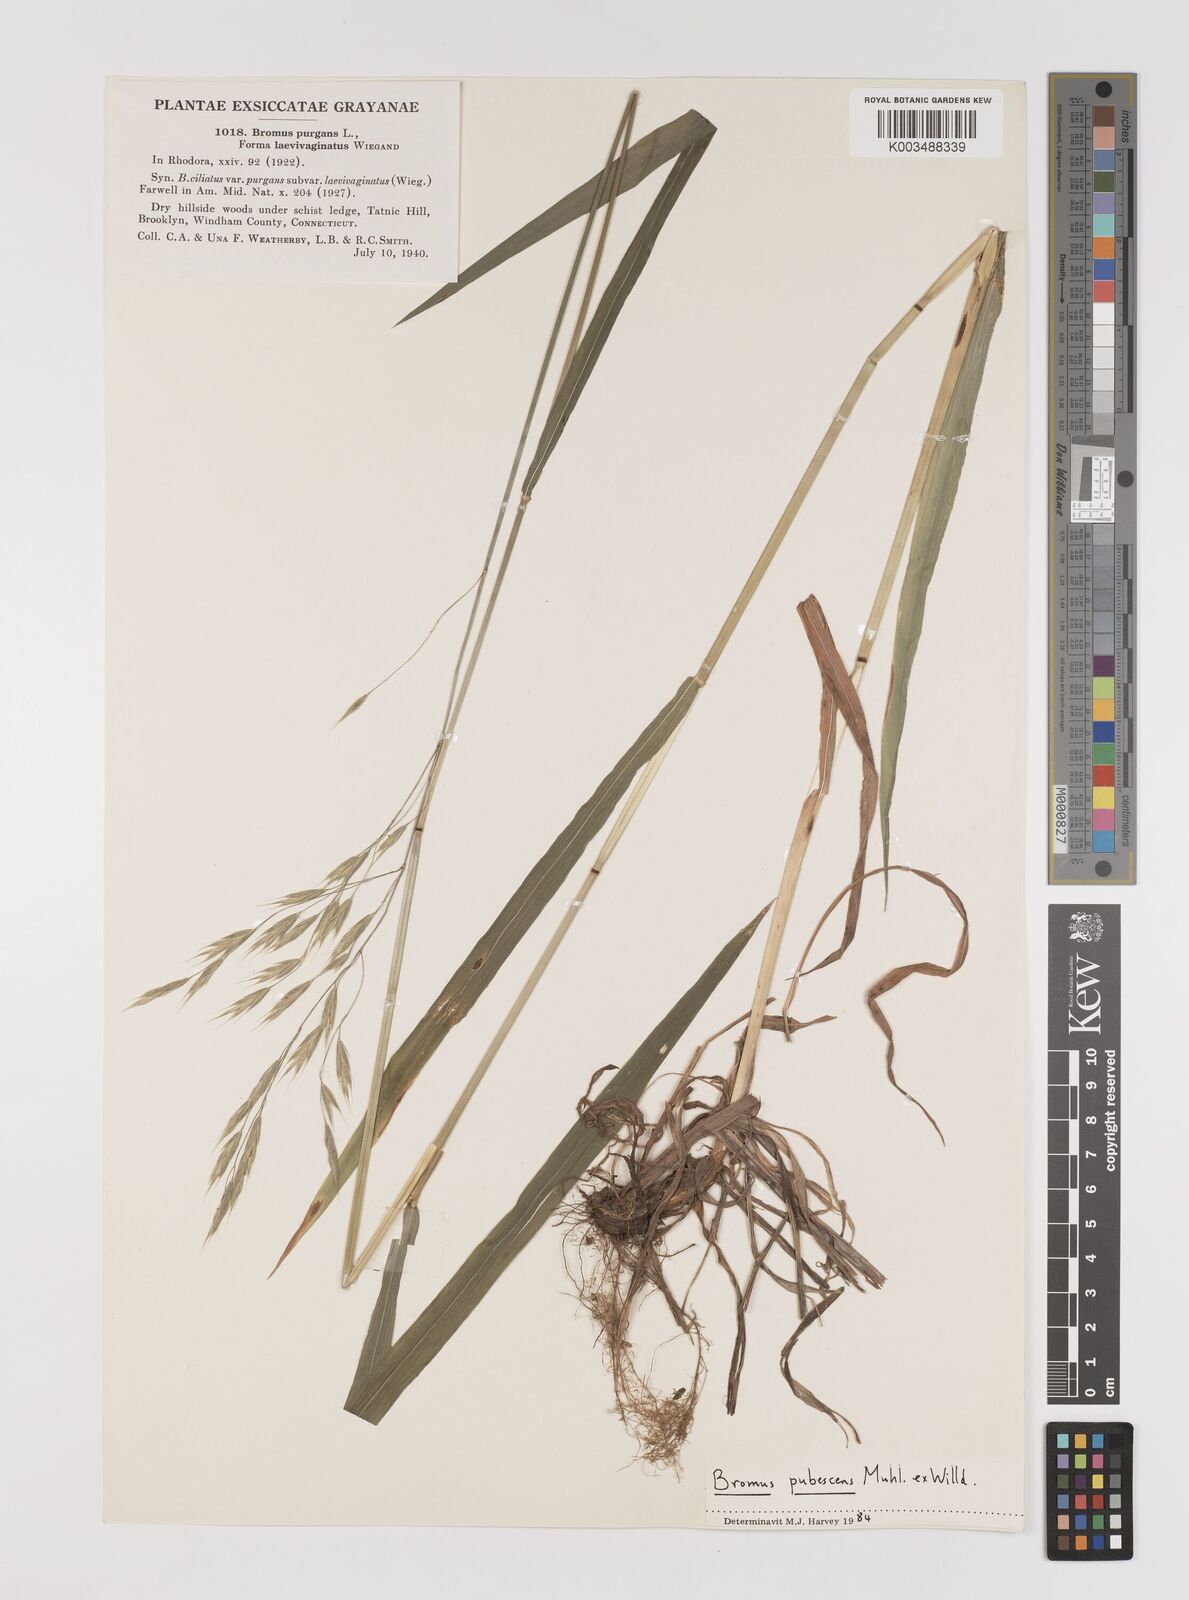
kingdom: Plantae
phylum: Tracheophyta
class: Liliopsida
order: Poales
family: Poaceae
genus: Bromus
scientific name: Bromus pubescens
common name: Hairy wood brome grass
